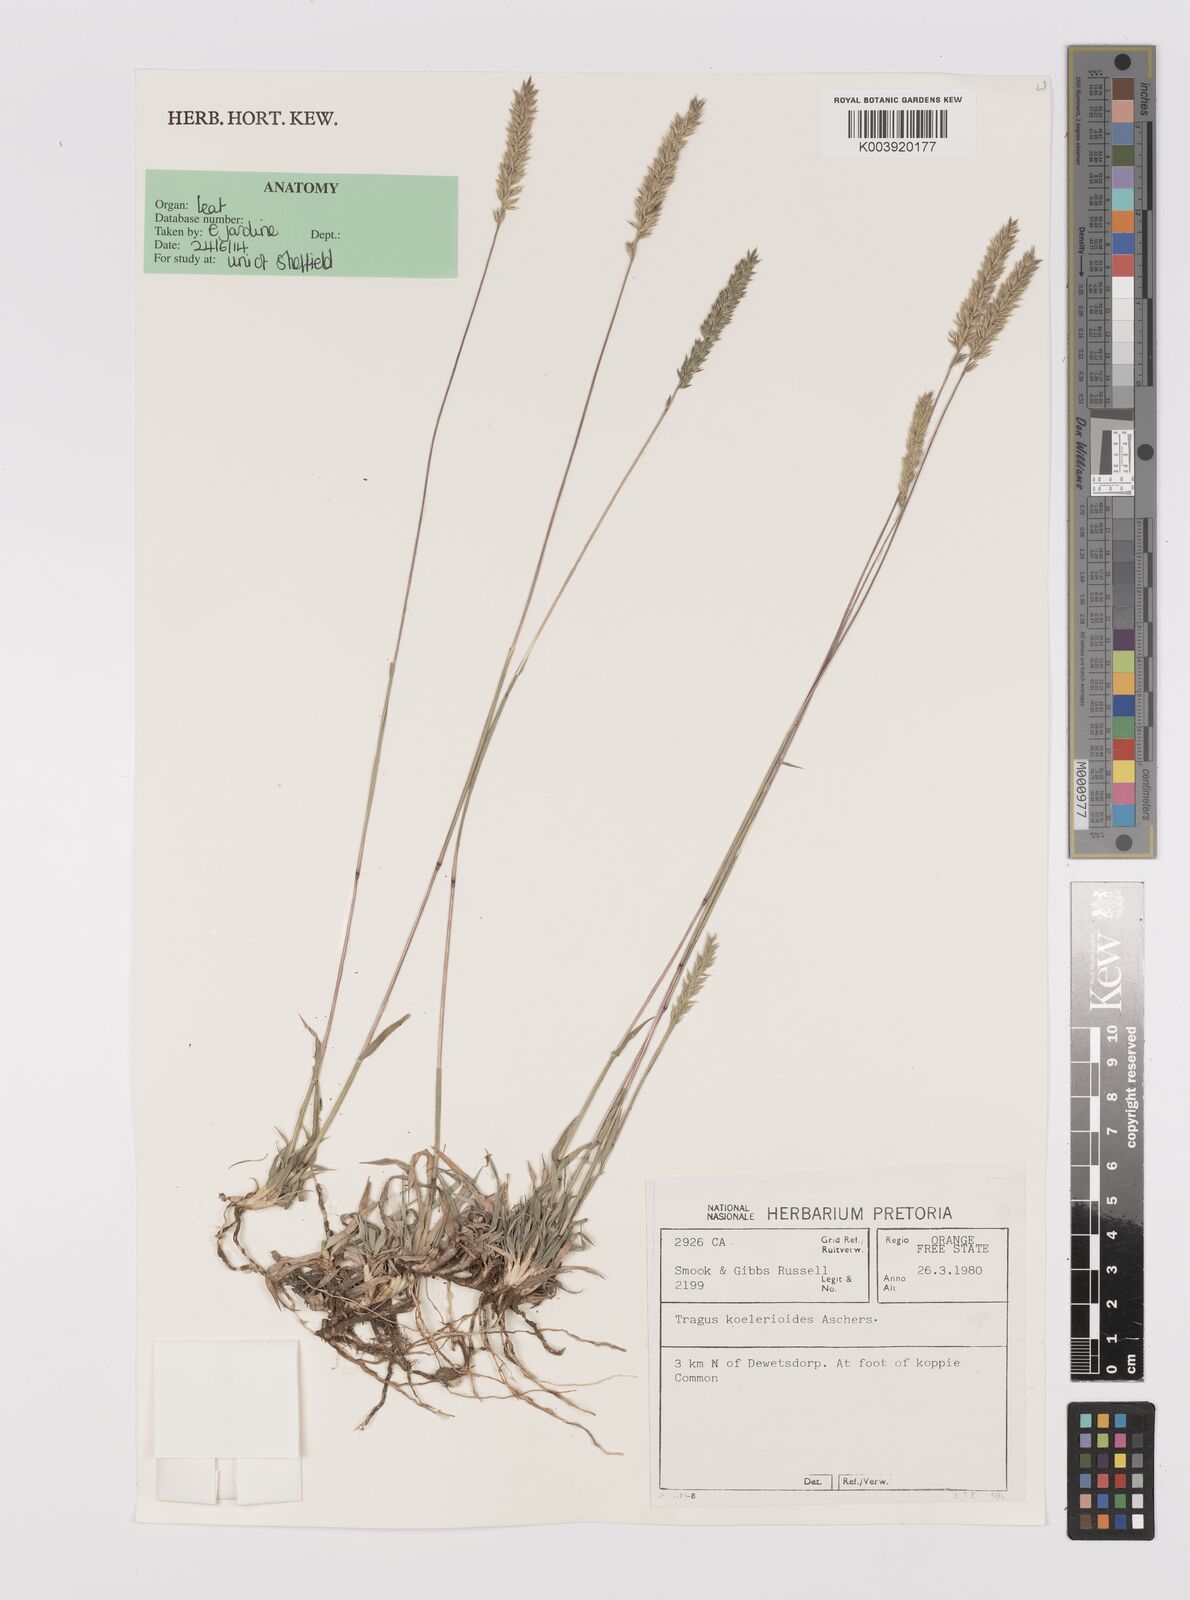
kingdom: Plantae
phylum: Tracheophyta
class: Liliopsida
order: Poales
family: Poaceae
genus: Tragus
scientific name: Tragus koelerioides
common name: Creeping carrot-seed grass
